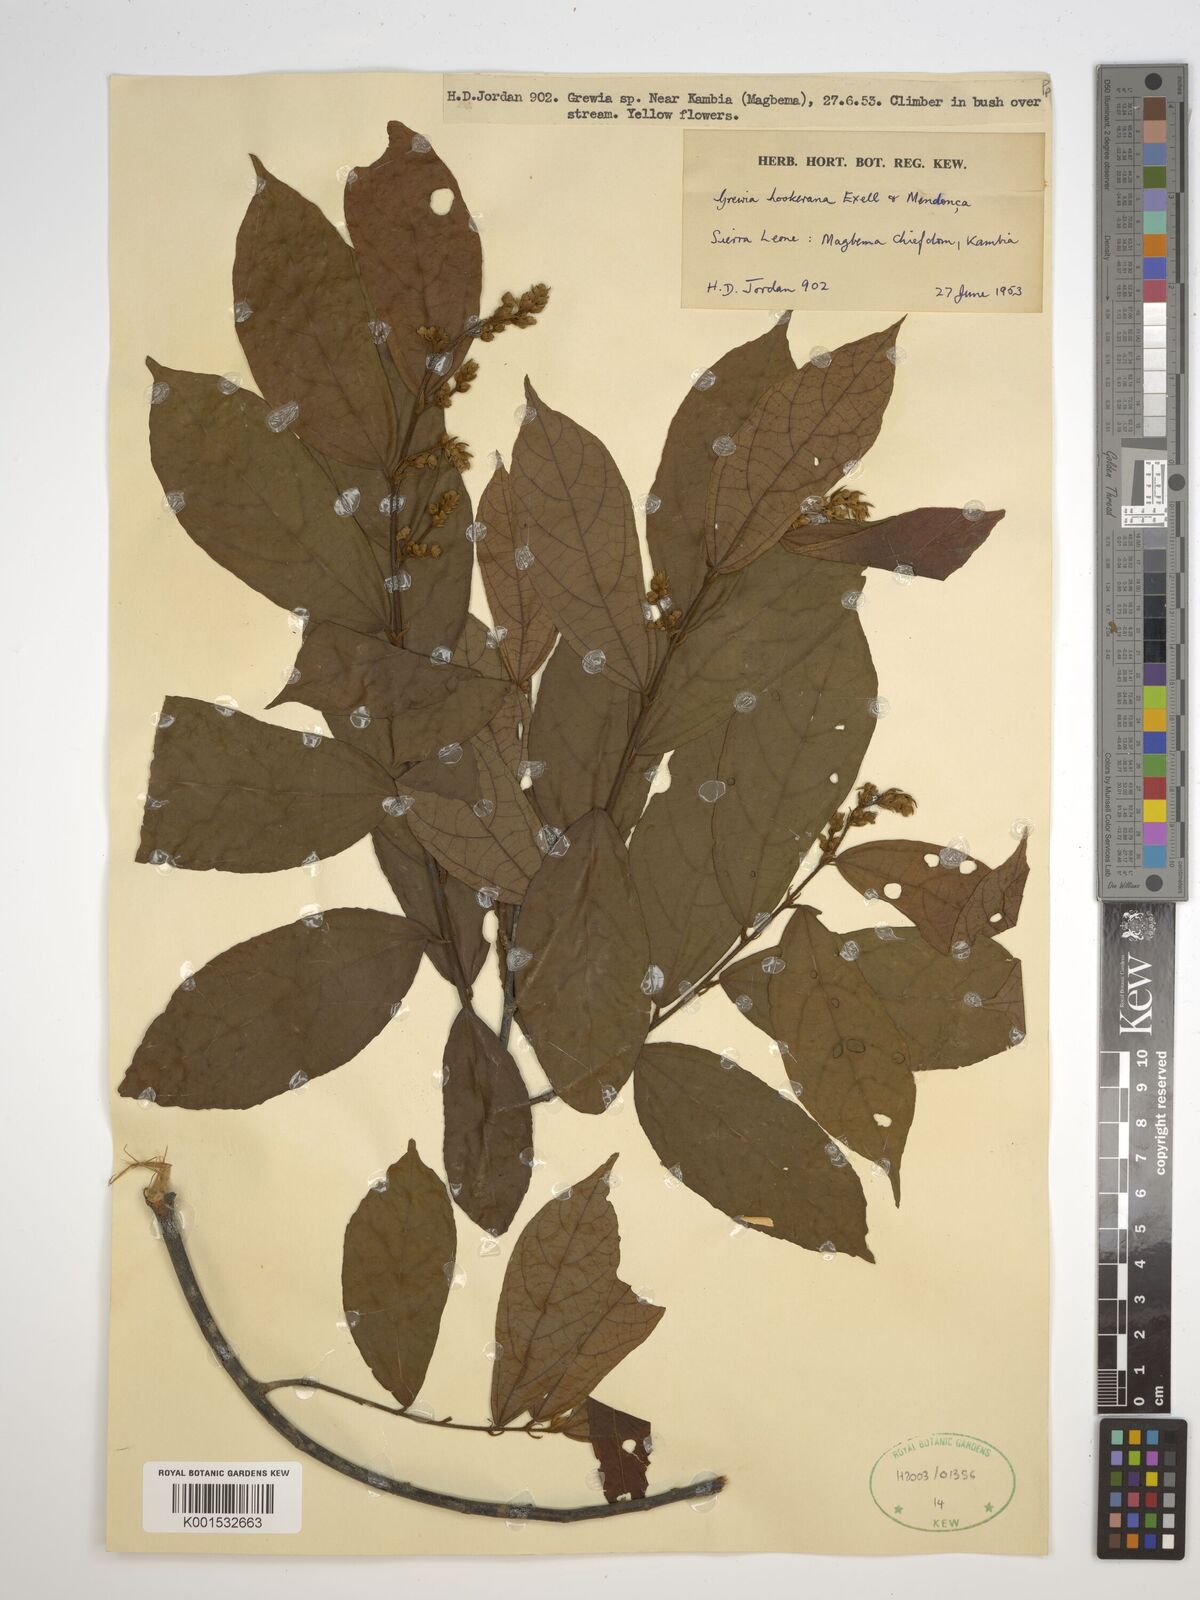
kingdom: Plantae
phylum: Tracheophyta
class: Magnoliopsida
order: Malvales
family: Malvaceae
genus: Microcos
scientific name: Microcos africana
